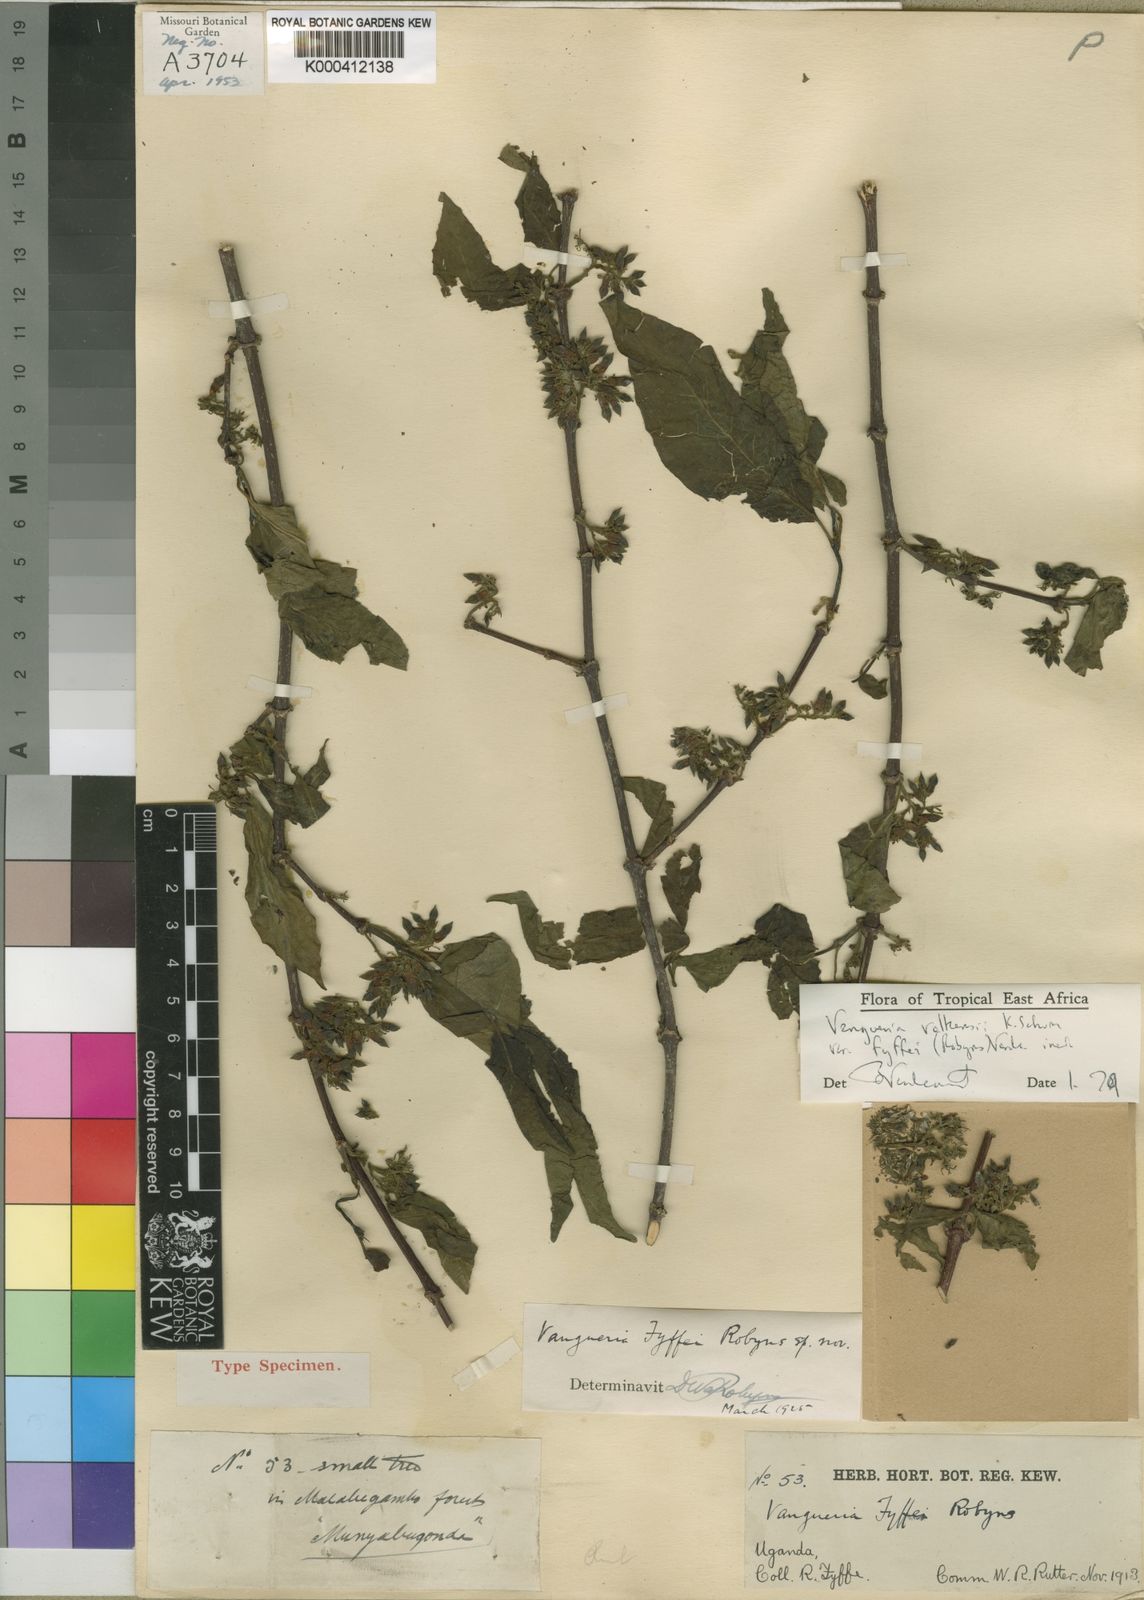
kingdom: Plantae
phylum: Tracheophyta
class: Magnoliopsida
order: Gentianales
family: Rubiaceae
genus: Vangueria
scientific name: Vangueria volkensii
